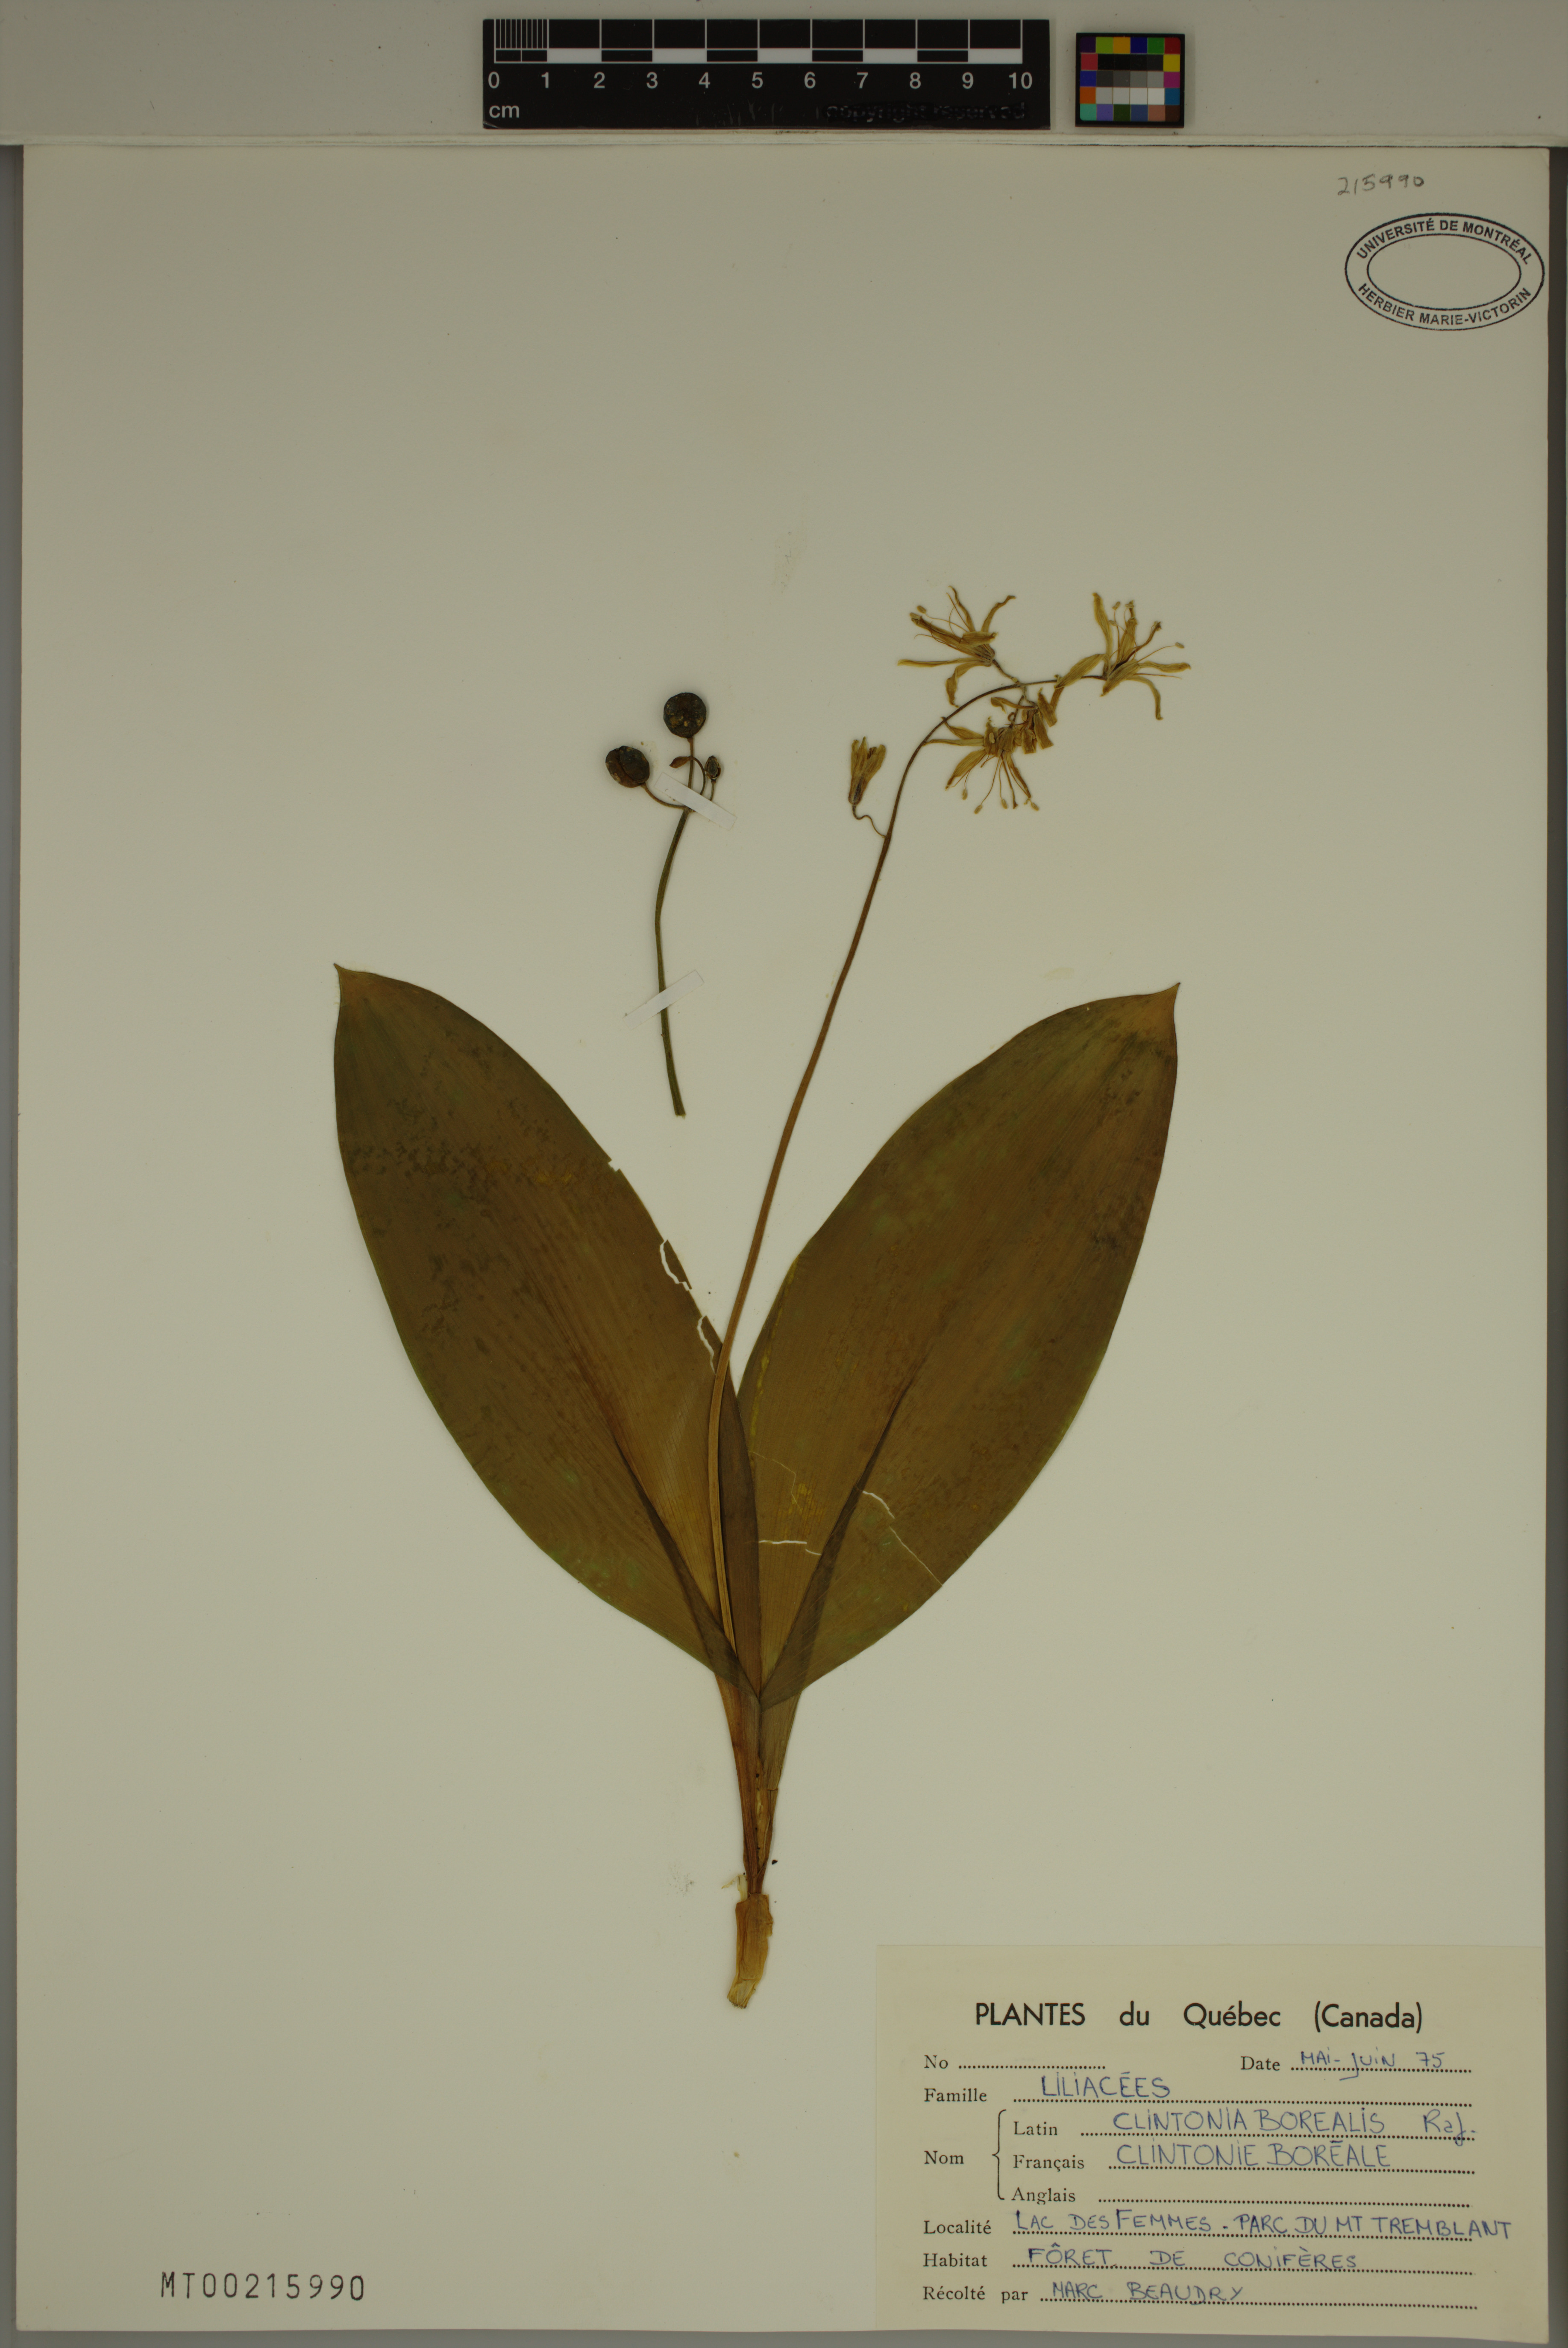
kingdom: Plantae
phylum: Tracheophyta
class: Liliopsida
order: Liliales
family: Liliaceae
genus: Clintonia
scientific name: Clintonia borealis
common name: Yellow clintonia
